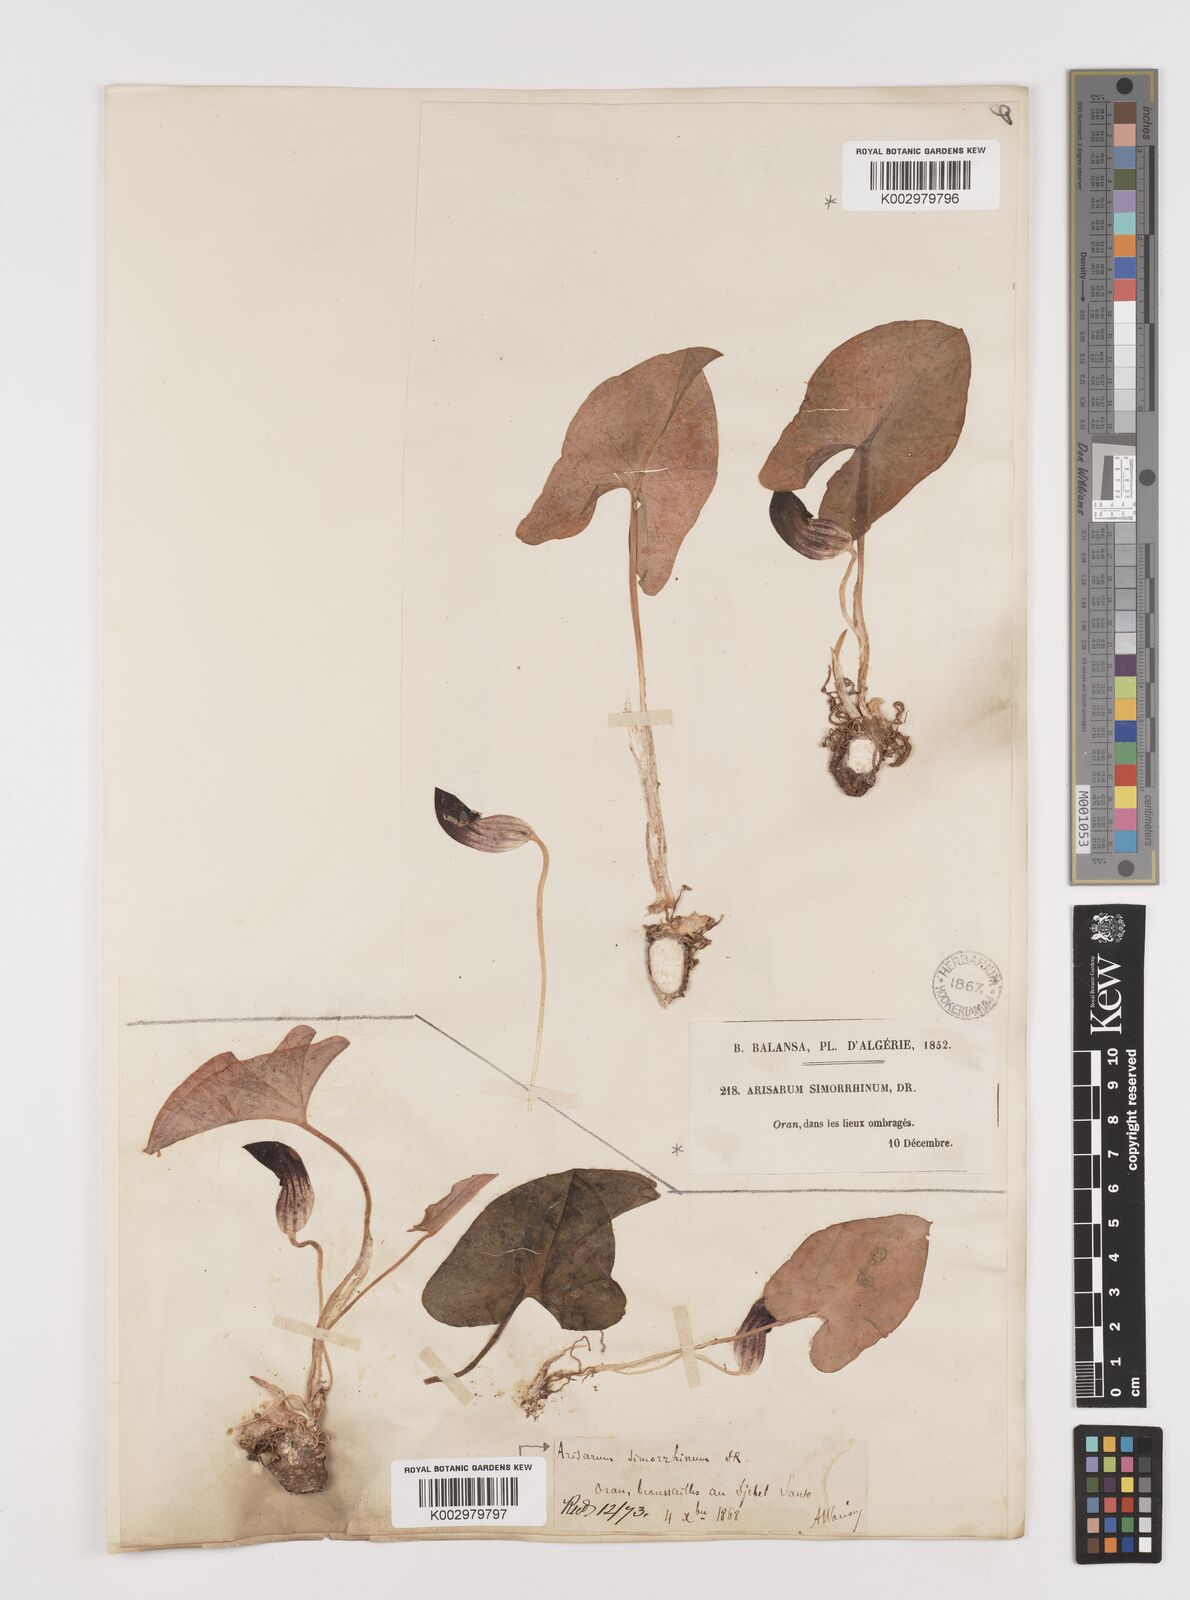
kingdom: Plantae
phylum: Tracheophyta
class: Liliopsida
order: Alismatales
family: Araceae
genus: Arisarum
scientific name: Arisarum simorrhinum
